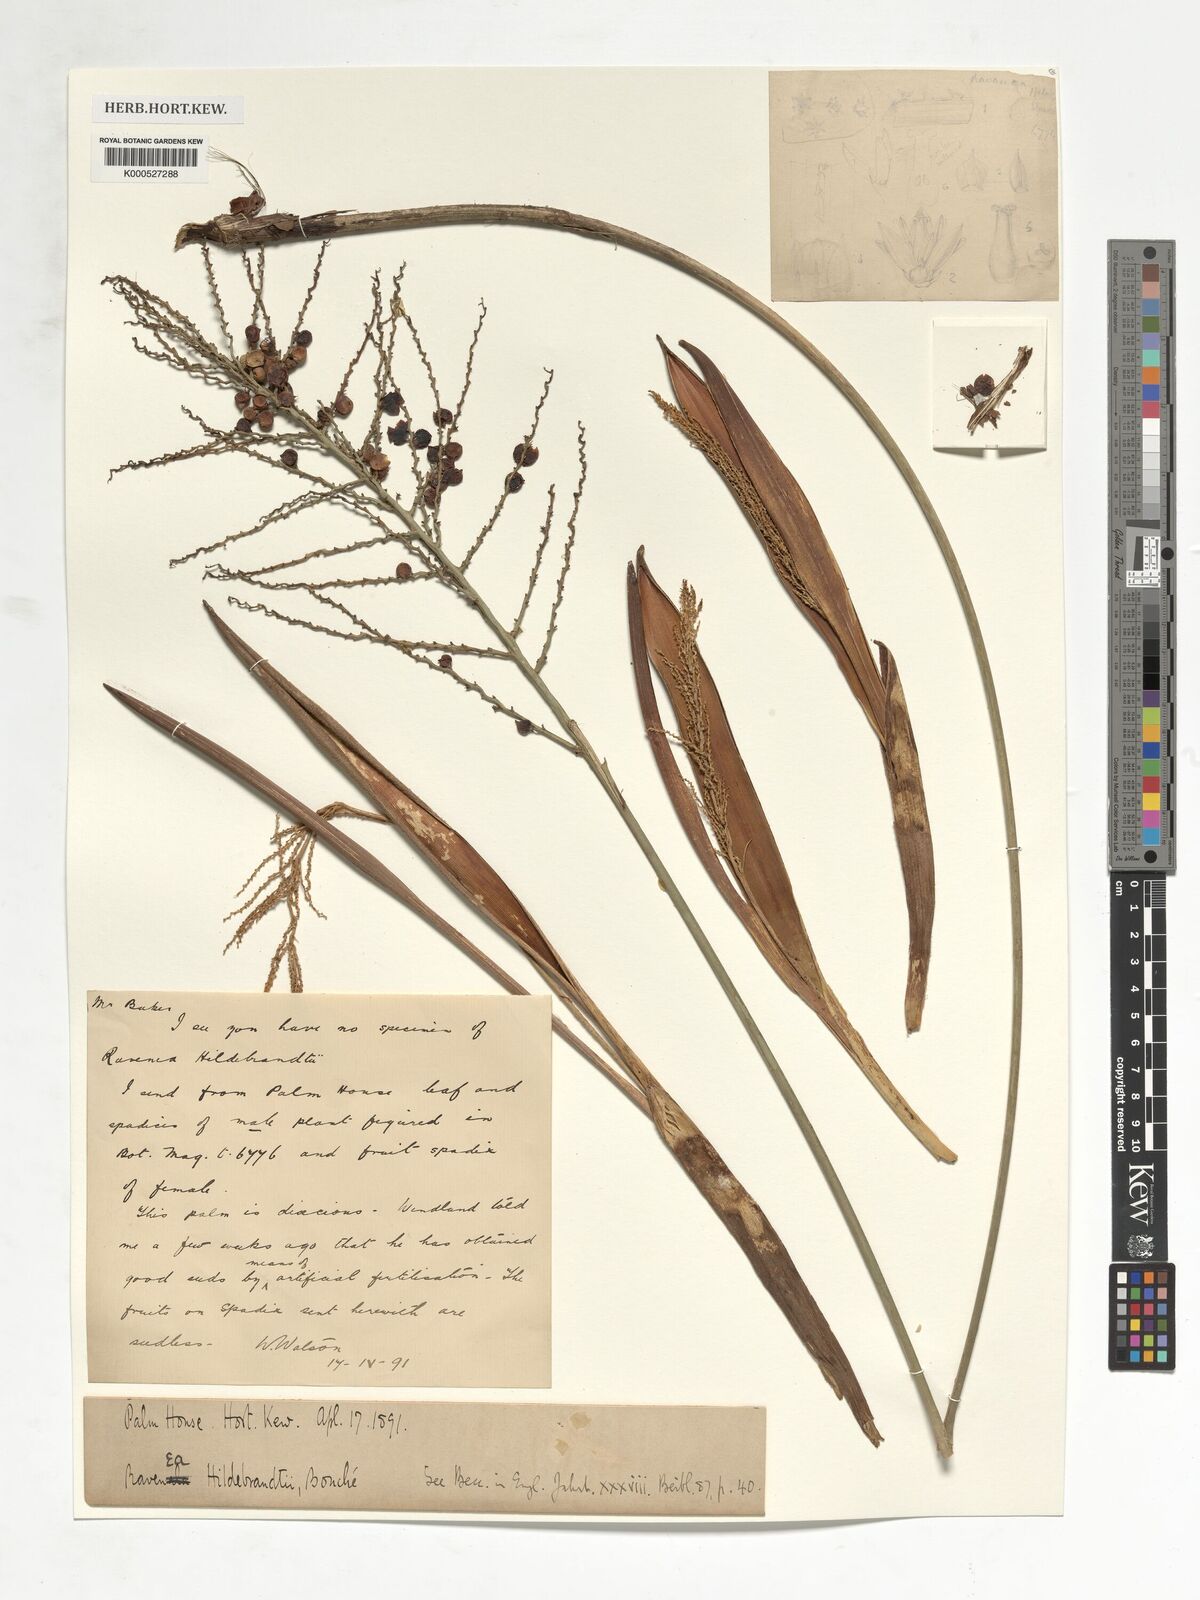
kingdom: Plantae
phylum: Tracheophyta
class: Liliopsida
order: Arecales
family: Arecaceae
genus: Ravenea
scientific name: Ravenea hildebrandtii
